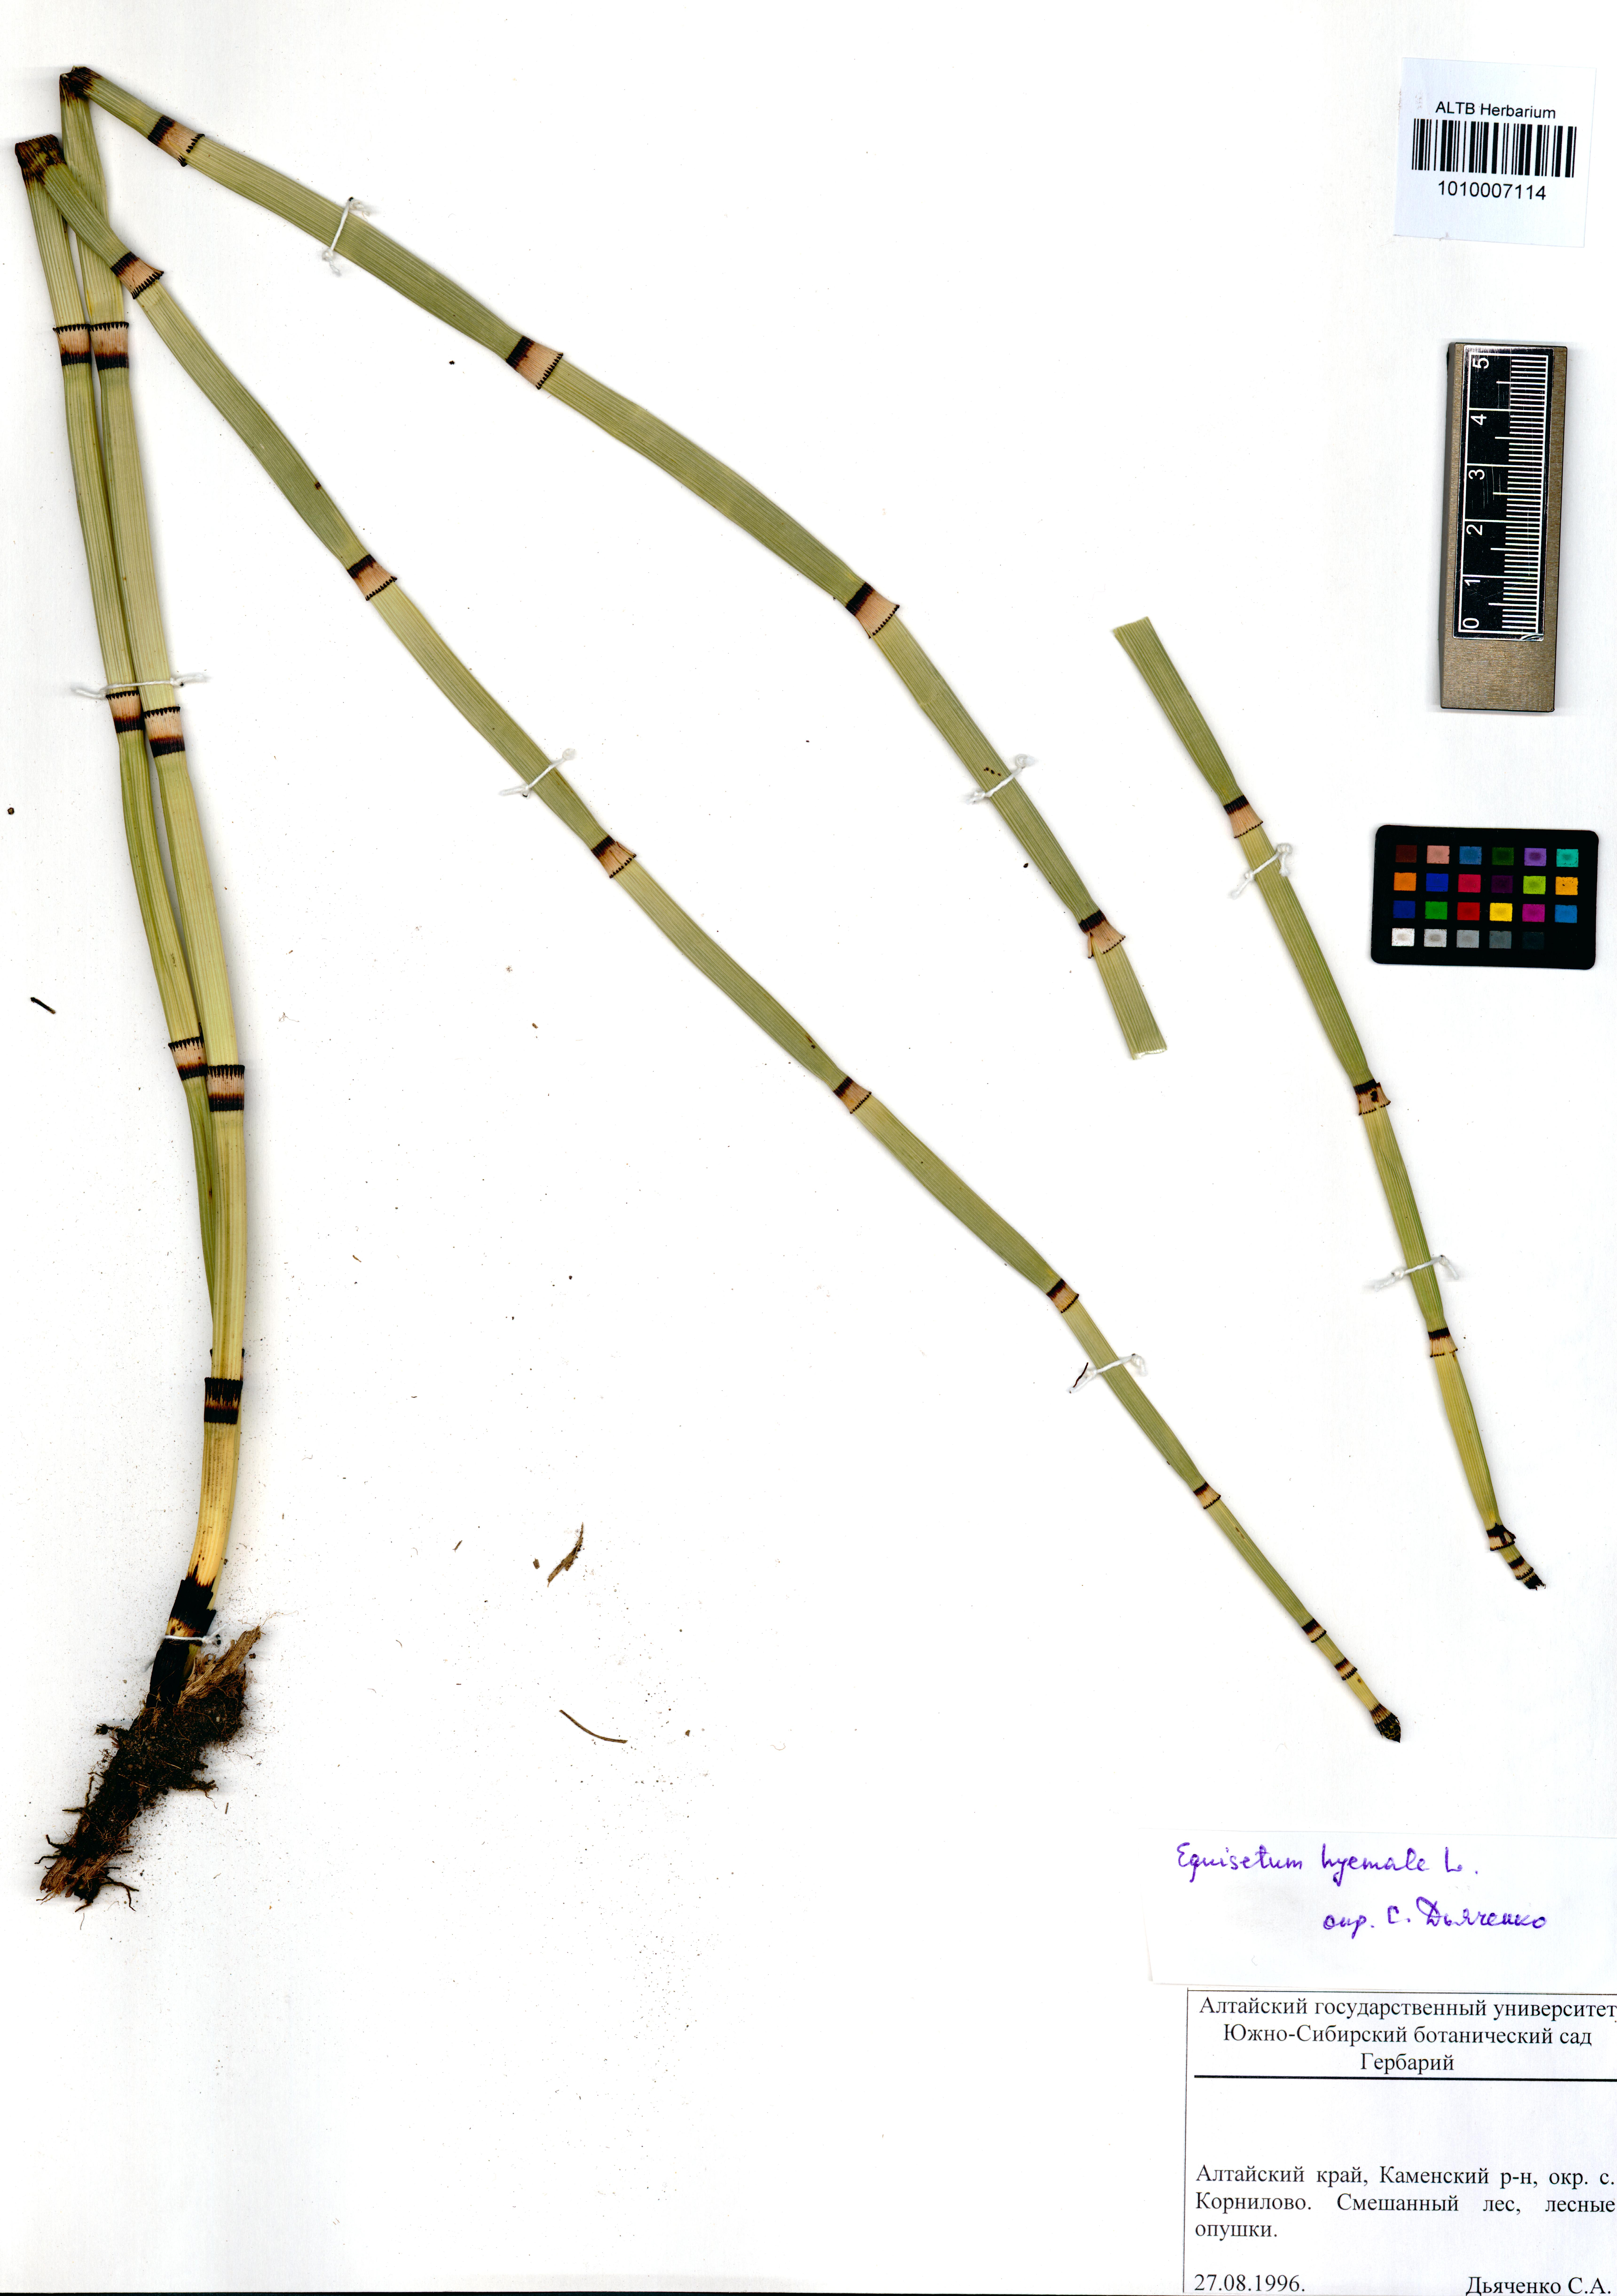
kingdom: Plantae
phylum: Tracheophyta
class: Polypodiopsida
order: Equisetales
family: Equisetaceae
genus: Equisetum
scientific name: Equisetum hyemale
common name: Rough horsetail
